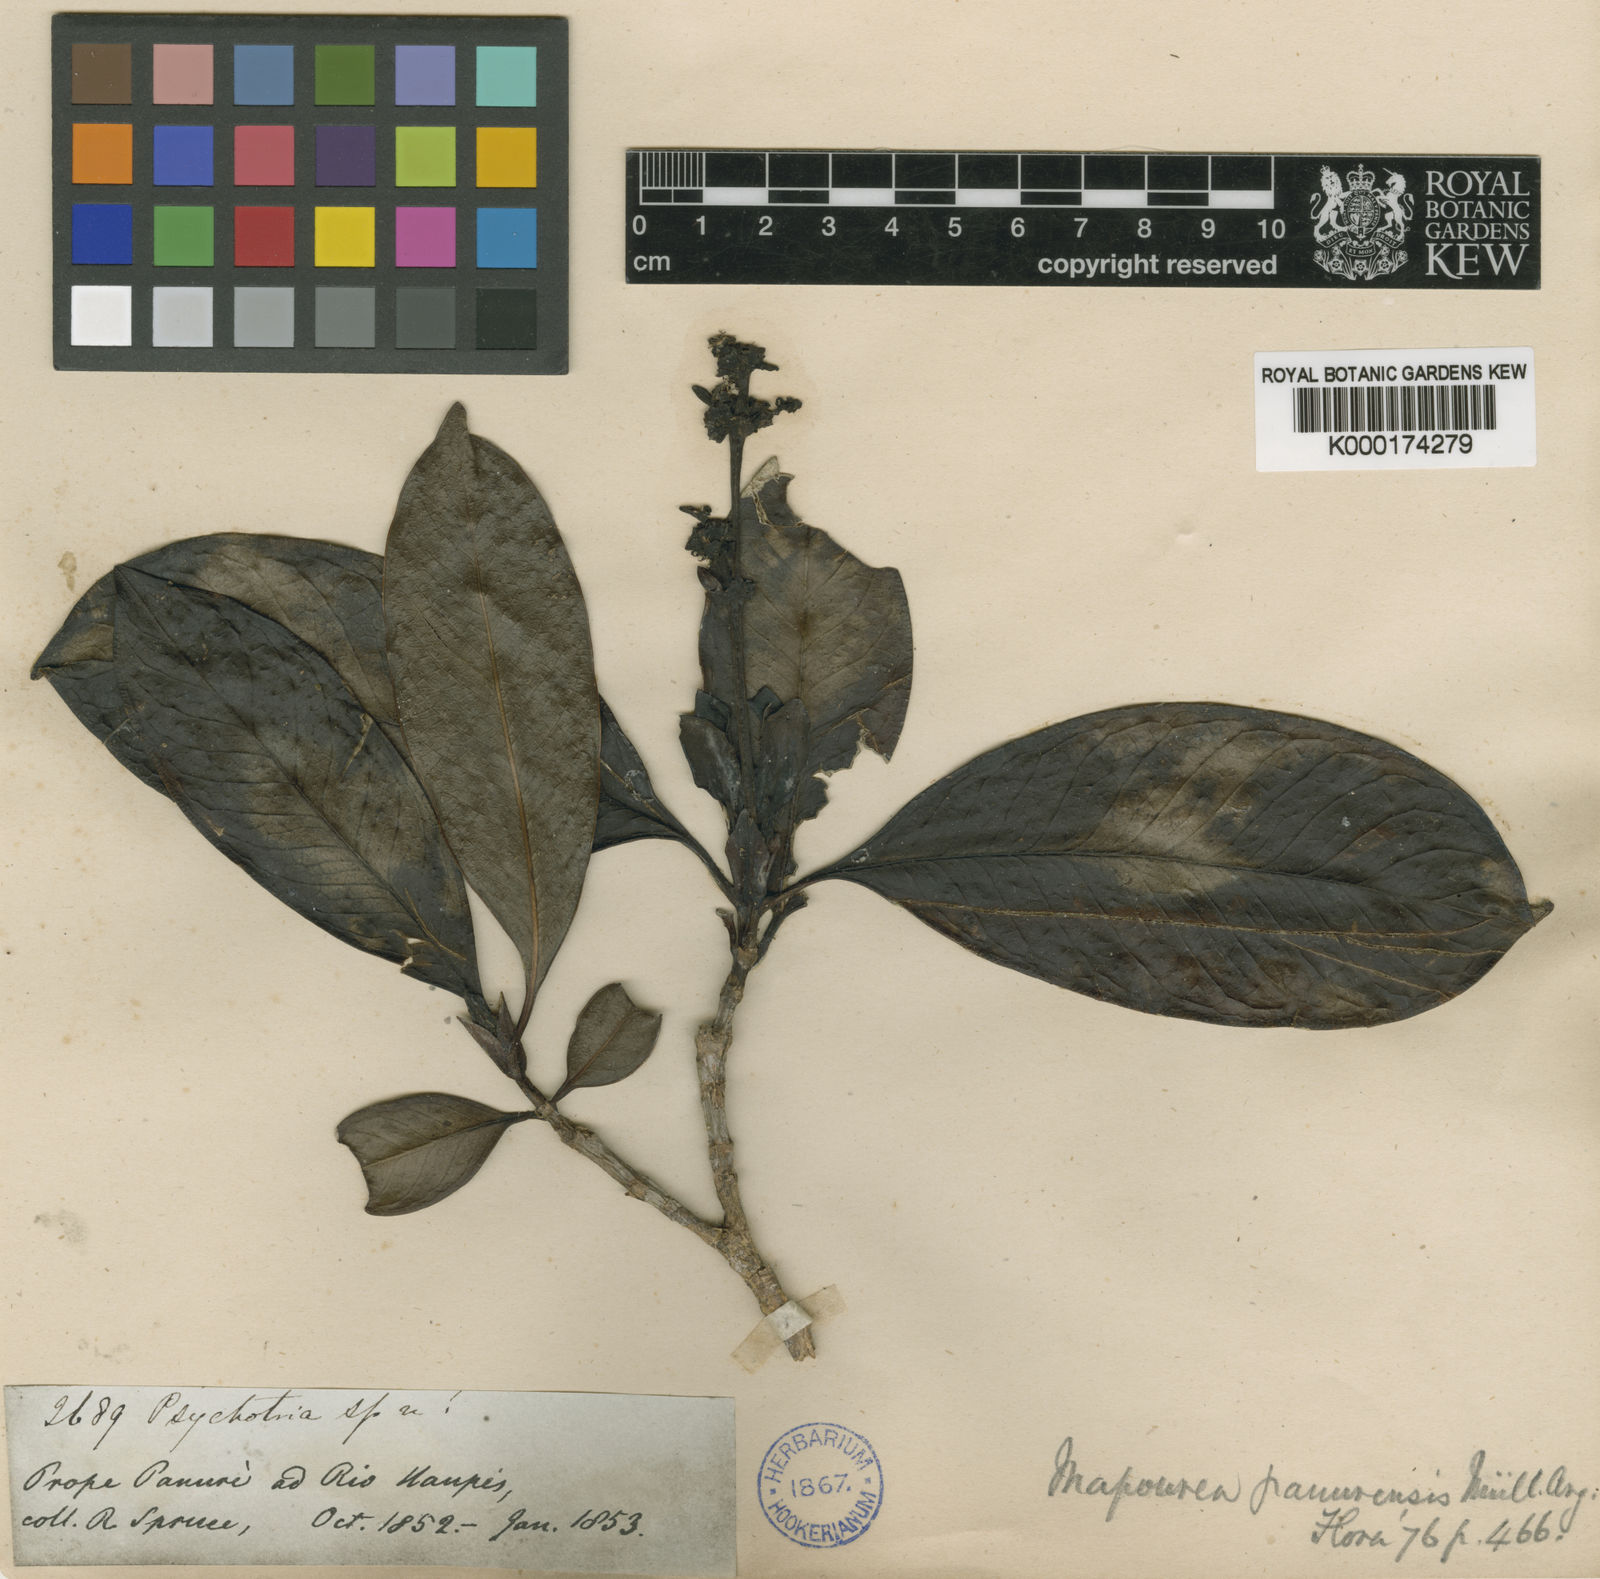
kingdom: Plantae
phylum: Tracheophyta
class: Magnoliopsida
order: Gentianales
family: Rubiaceae
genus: Carapichea
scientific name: Carapichea
